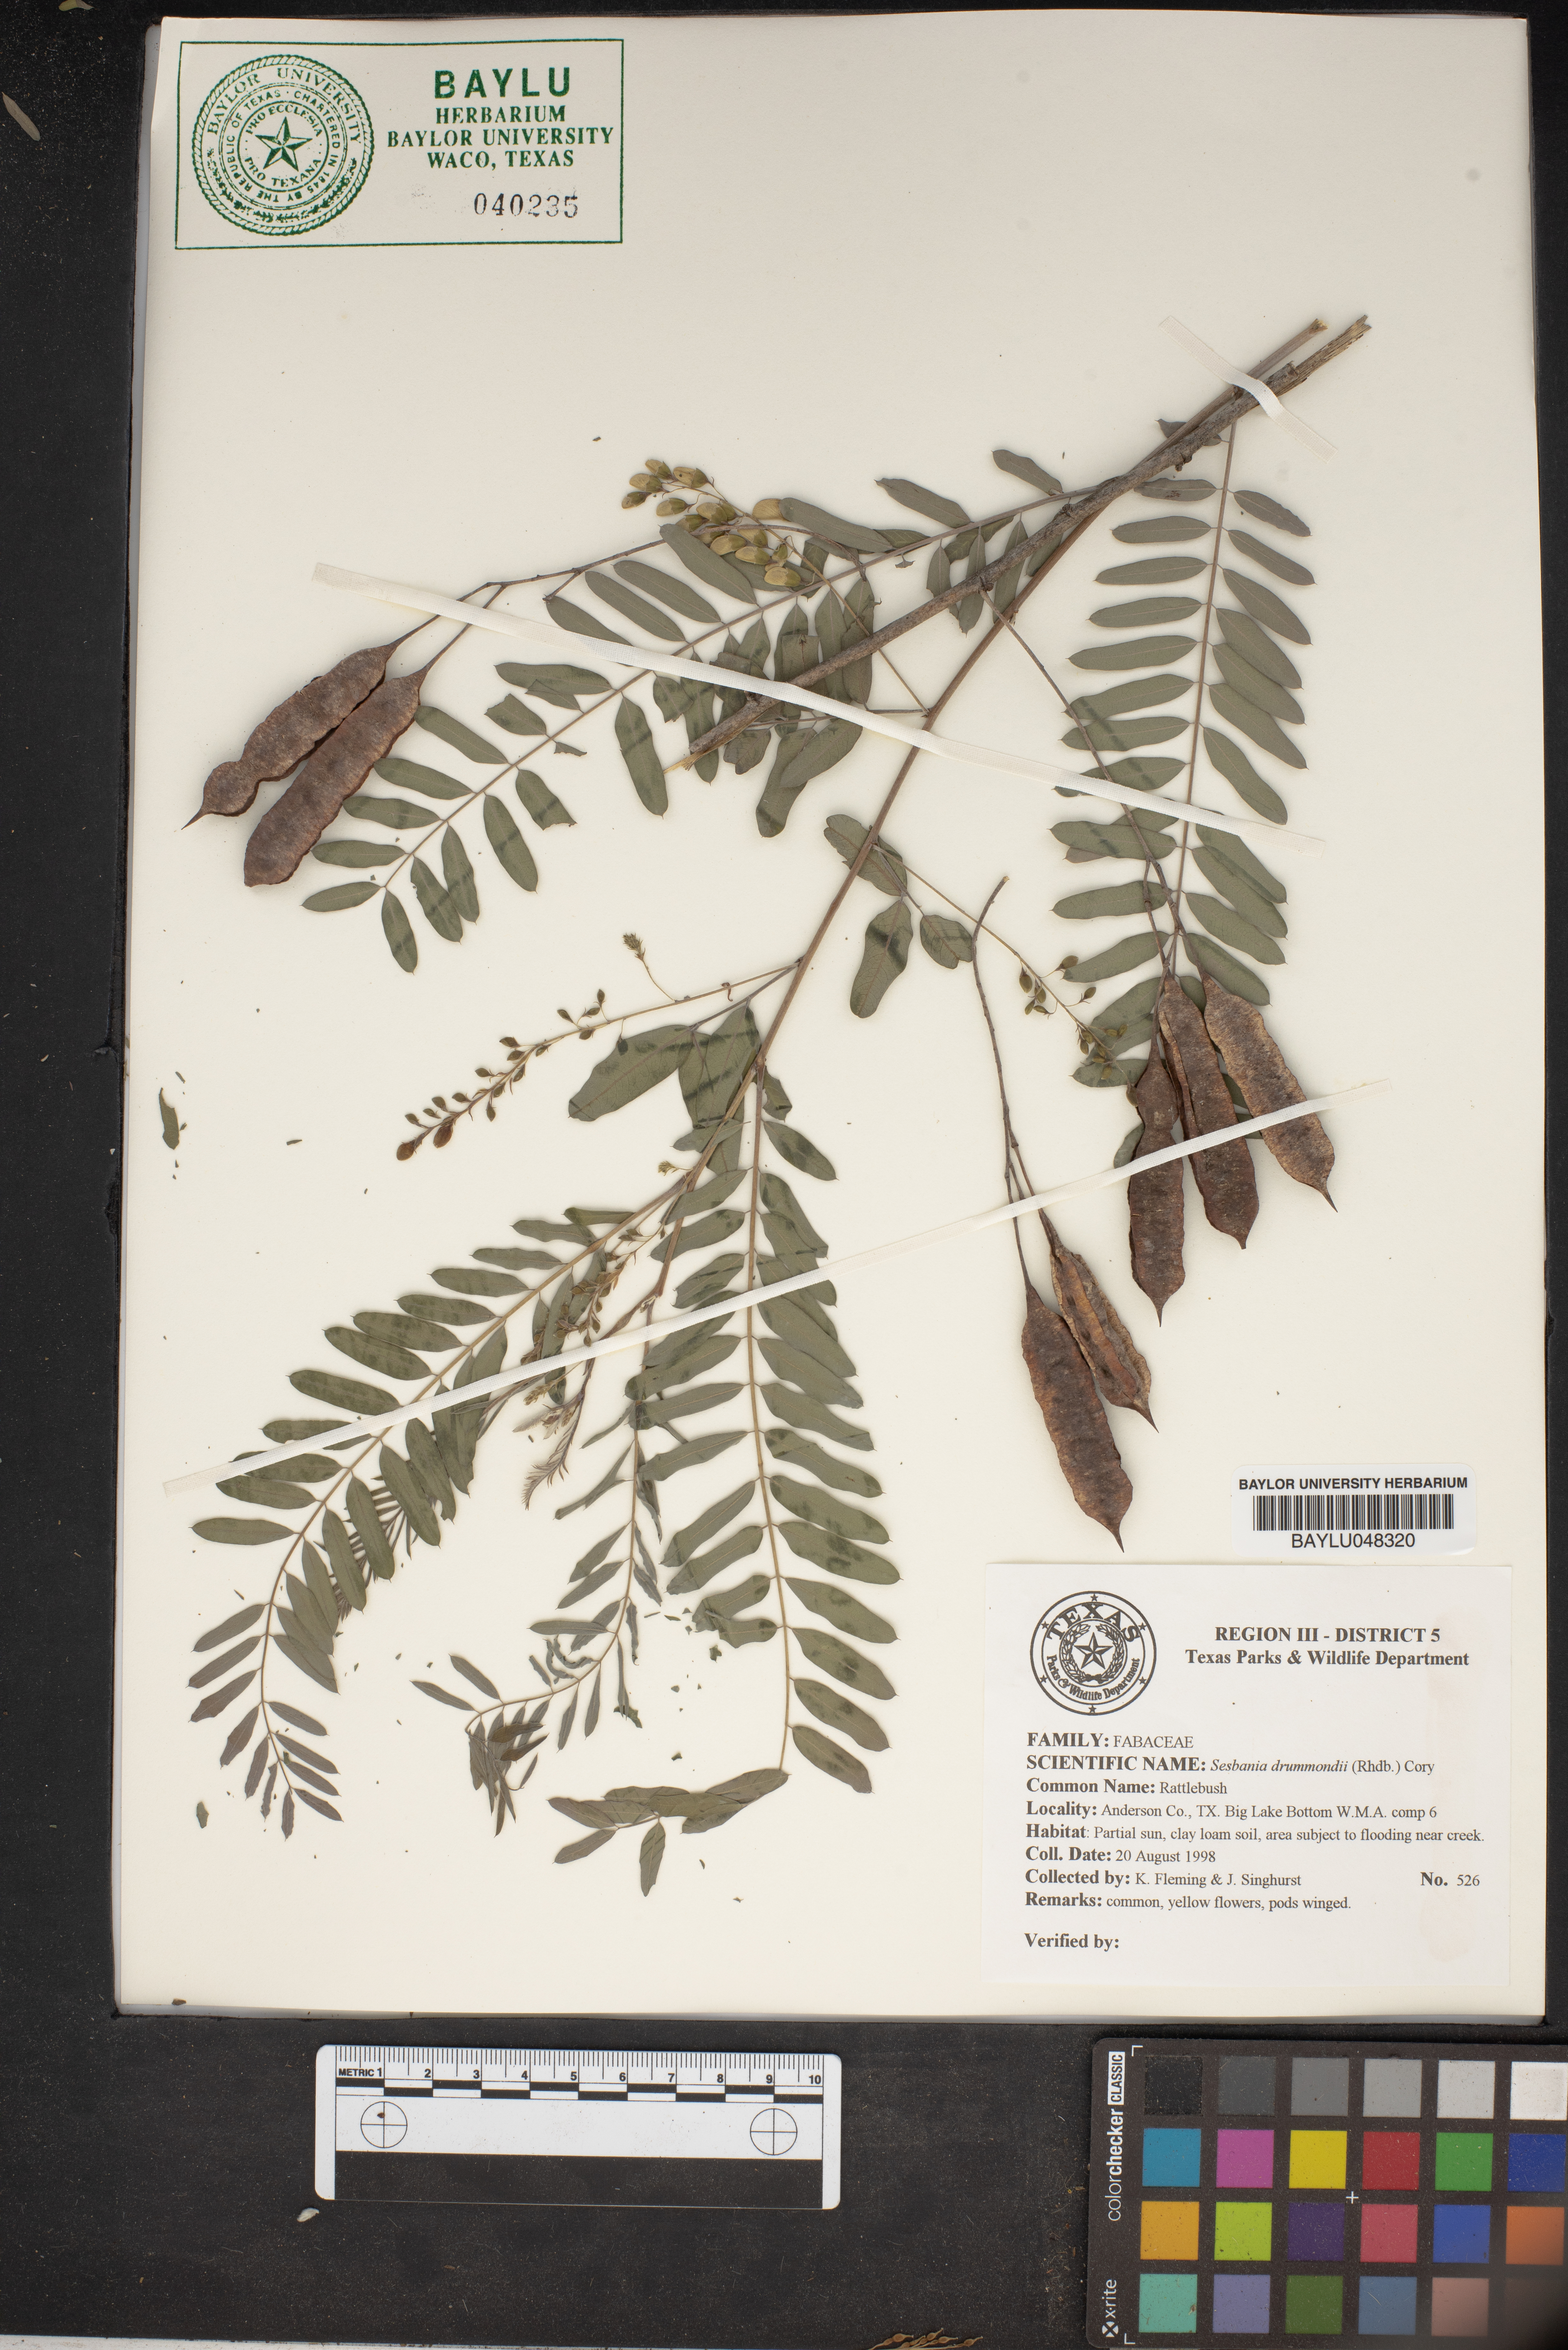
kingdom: Plantae
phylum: Tracheophyta
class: Magnoliopsida
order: Fabales
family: Fabaceae
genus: Sesbania
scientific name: Sesbania drummondii
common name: Poison-bean
